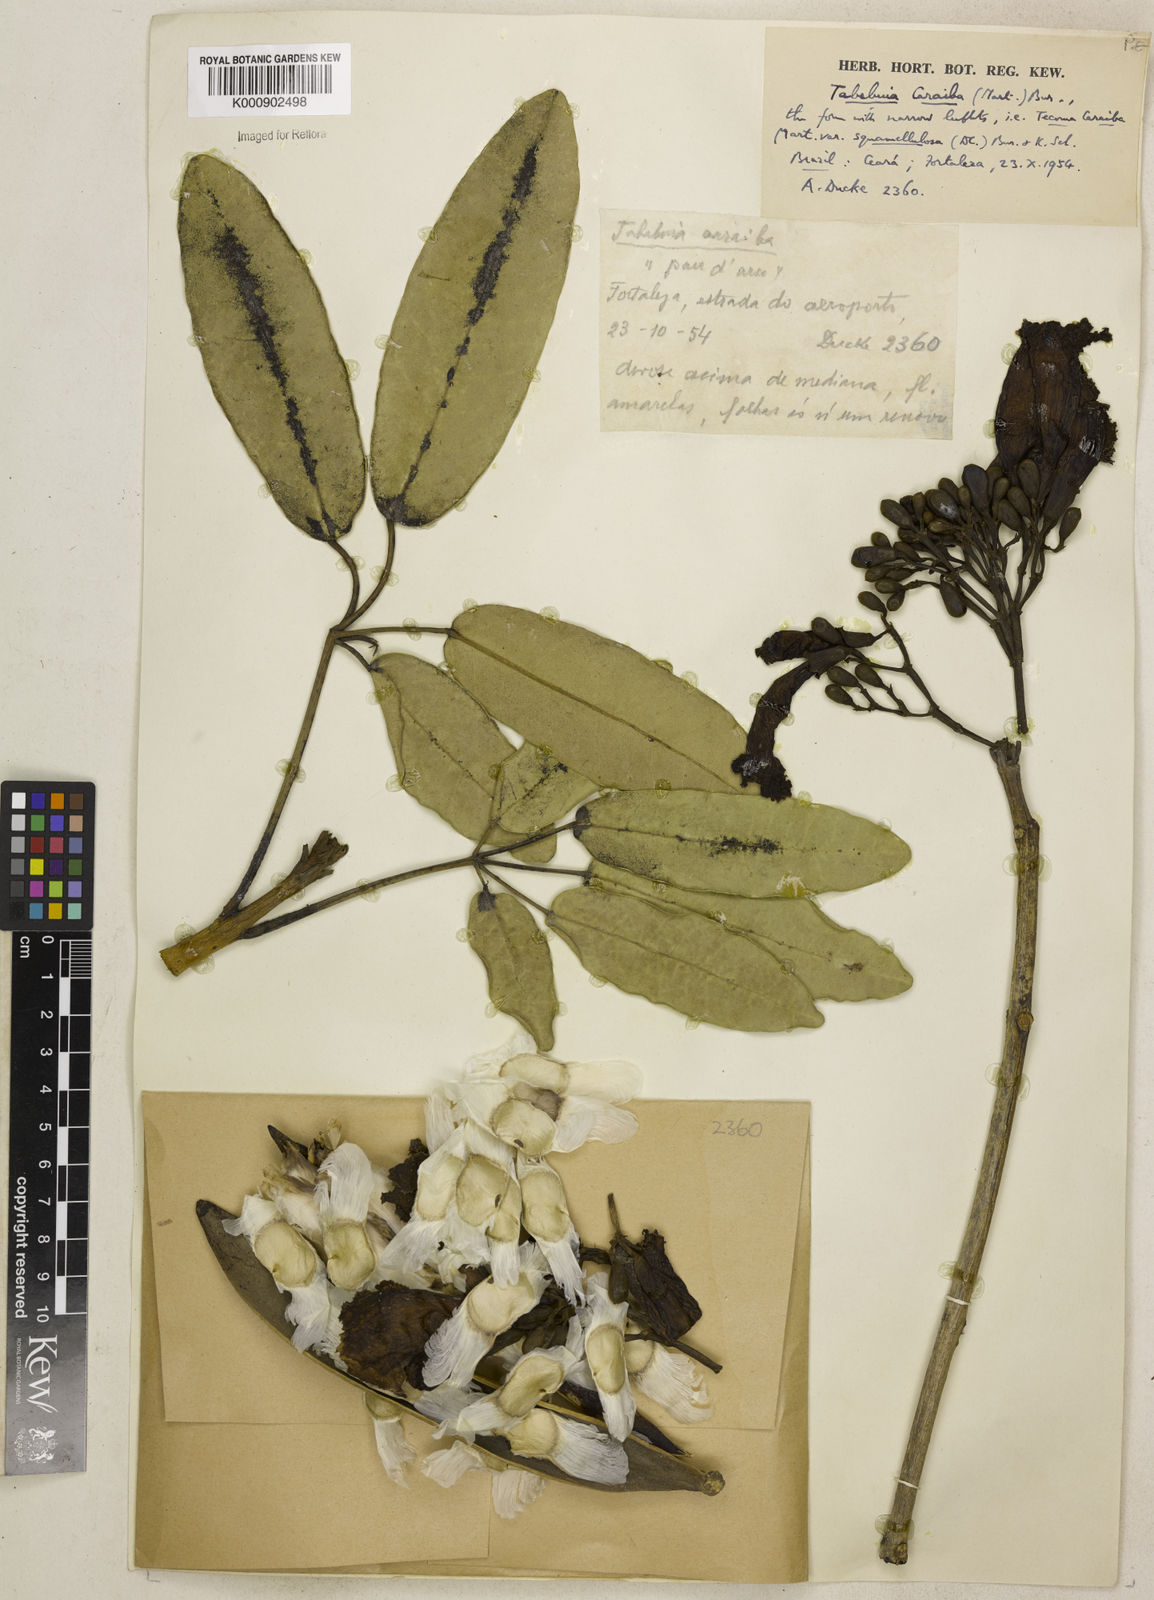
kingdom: Plantae
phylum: Tracheophyta
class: Magnoliopsida
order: Lamiales
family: Bignoniaceae
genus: Tabebuia
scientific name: Tabebuia aurea
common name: Caribbean trumpet-tree
